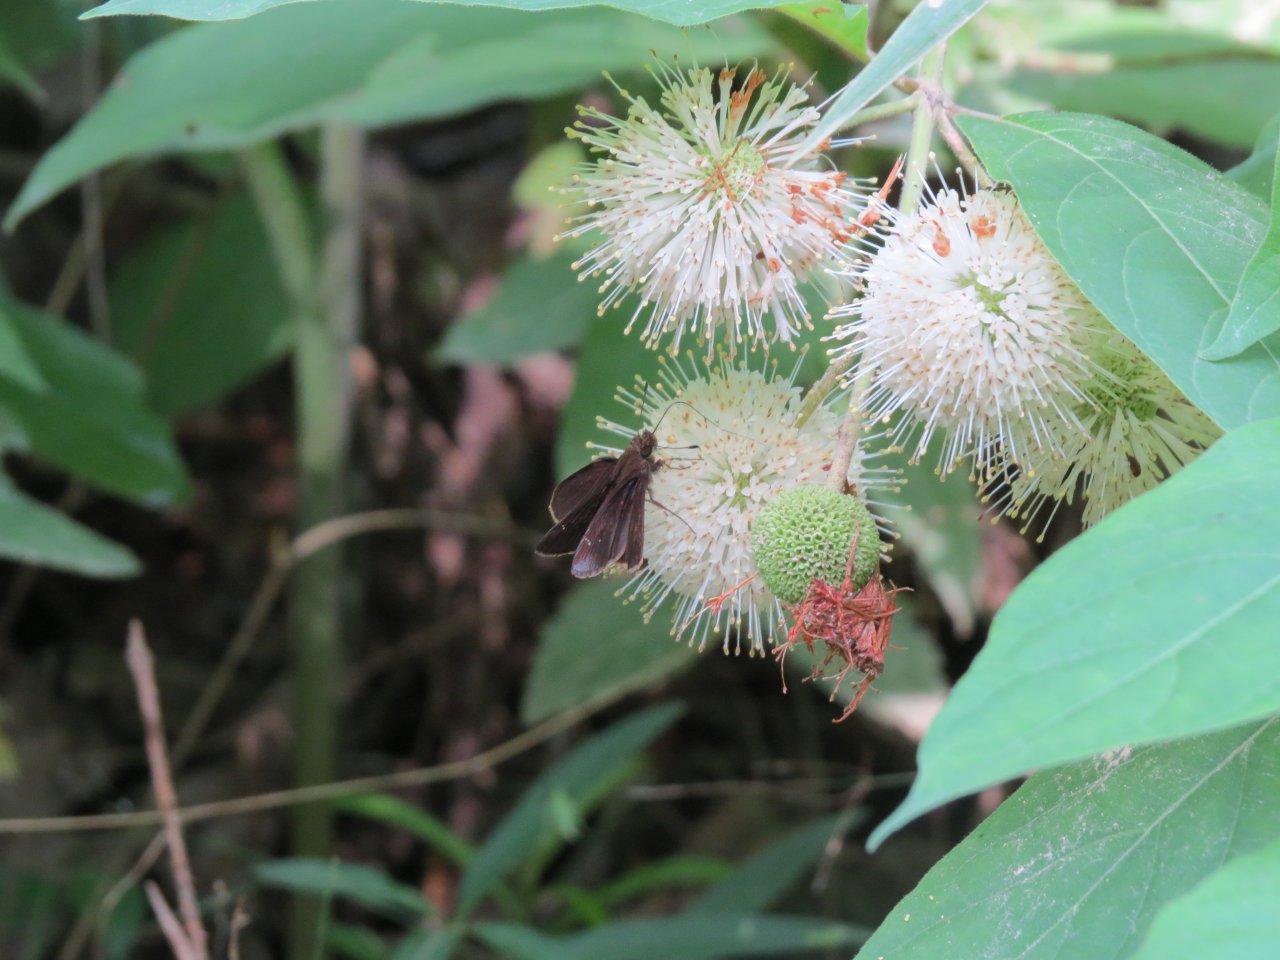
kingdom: Animalia
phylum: Arthropoda
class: Insecta
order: Lepidoptera
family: Hesperiidae
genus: Lerema
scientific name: Lerema accius
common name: Clouded Skipper
